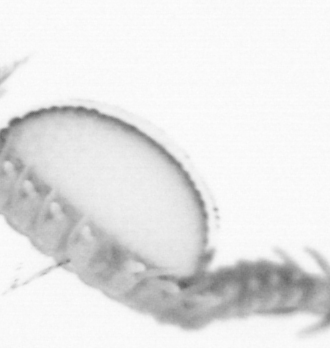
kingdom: Animalia
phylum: Annelida
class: Polychaeta
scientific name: Polychaeta
